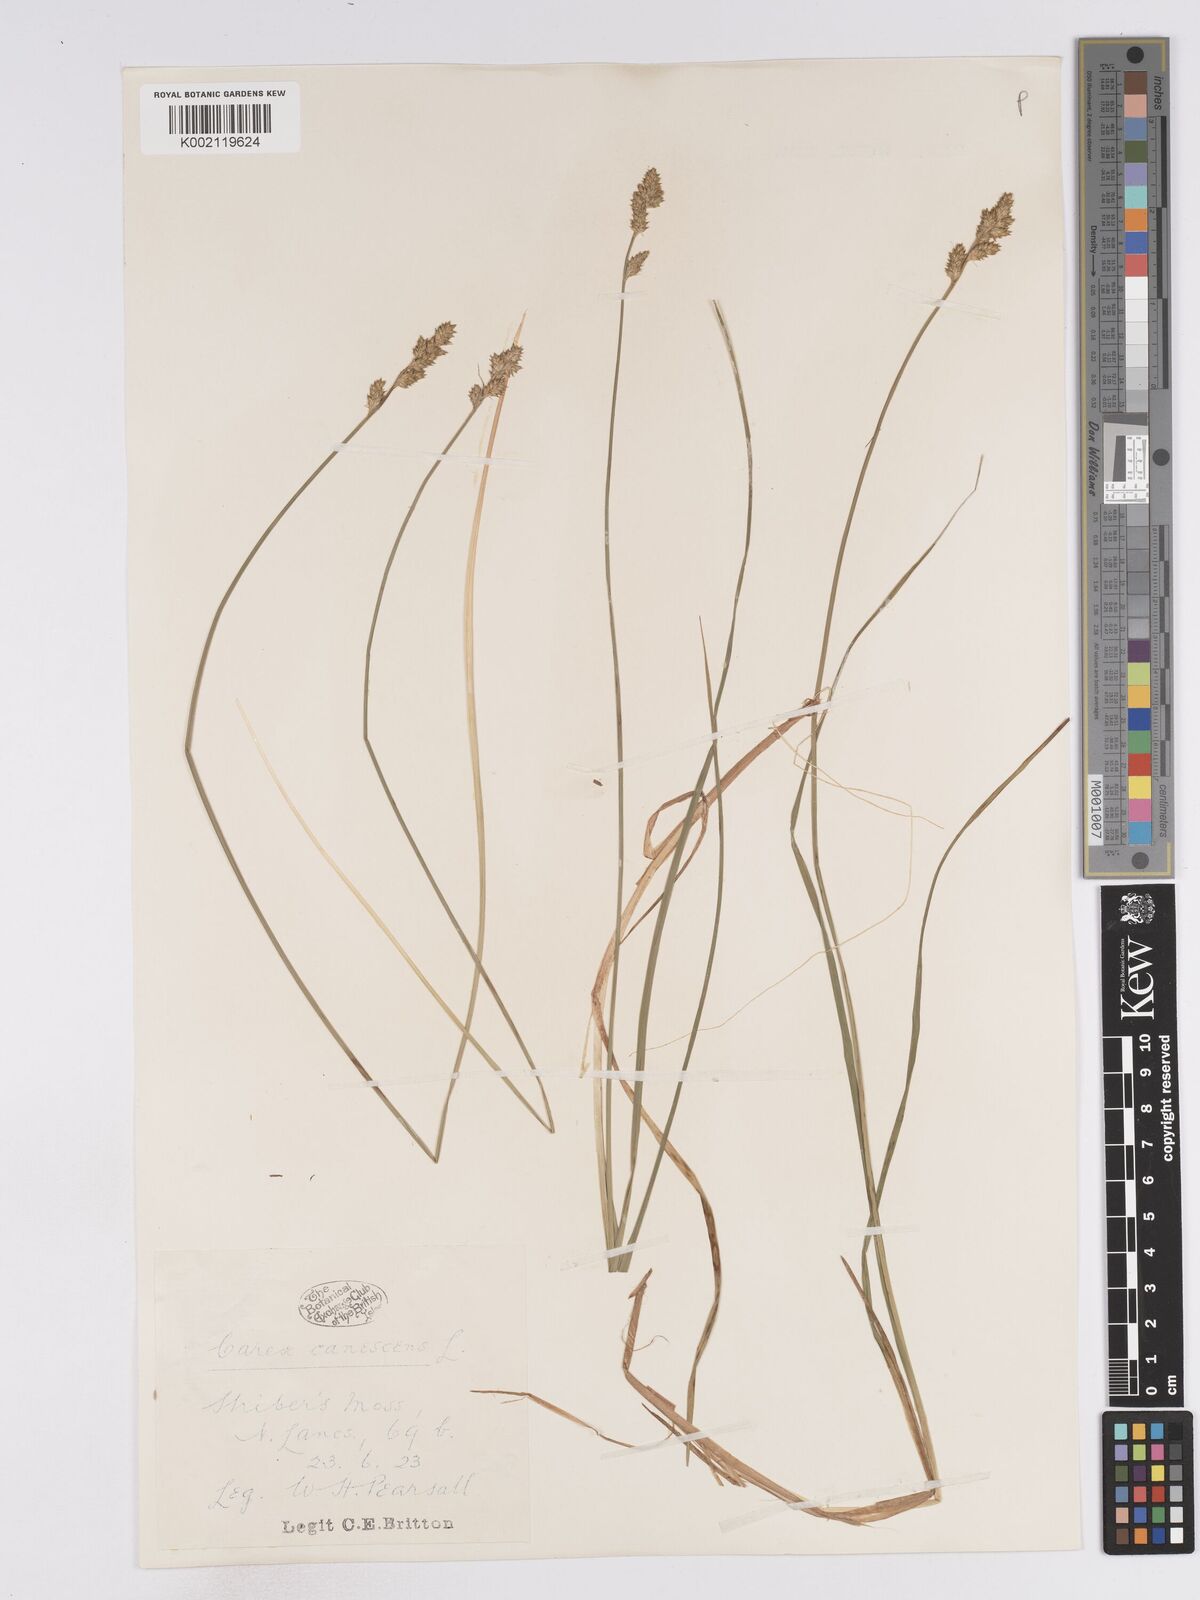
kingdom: Plantae
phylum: Tracheophyta
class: Liliopsida
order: Poales
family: Cyperaceae
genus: Carex
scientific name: Carex curta
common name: White sedge
